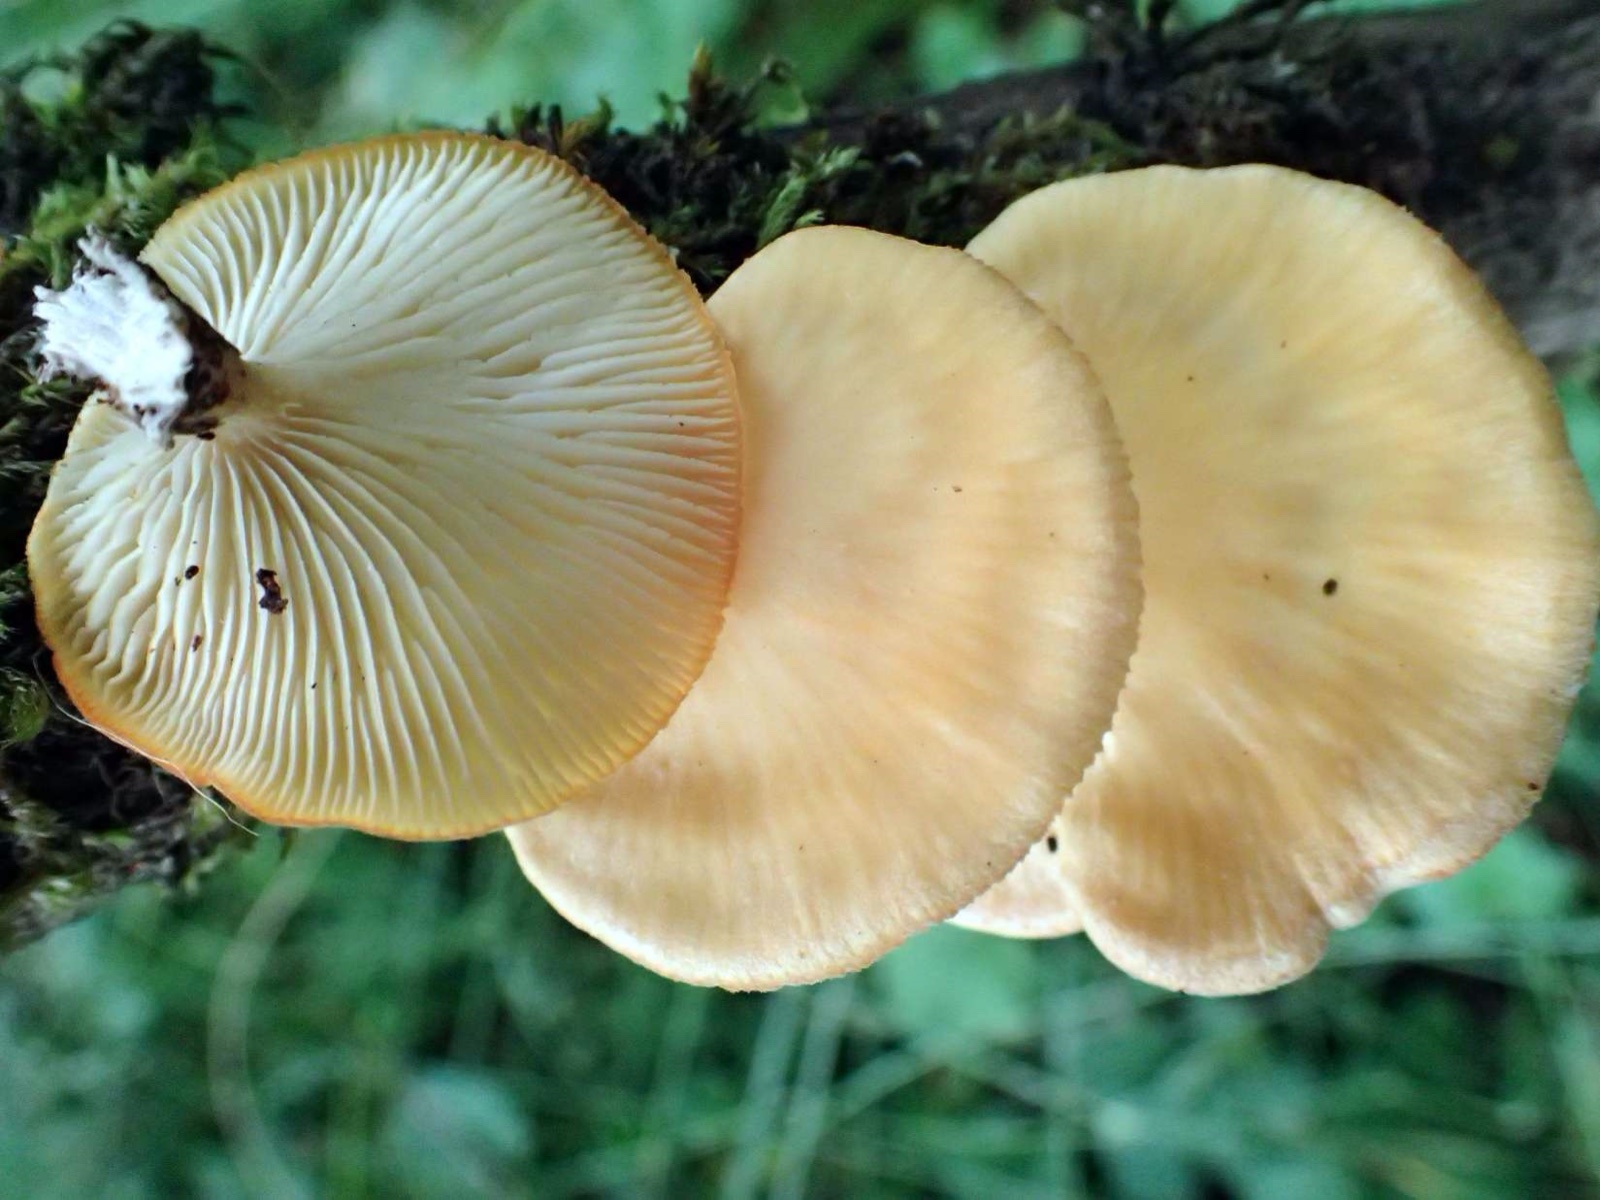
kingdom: Fungi
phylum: Basidiomycota
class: Agaricomycetes
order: Polyporales
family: Polyporaceae
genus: Neofavolus
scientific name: Neofavolus suavissimus
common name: anishat
